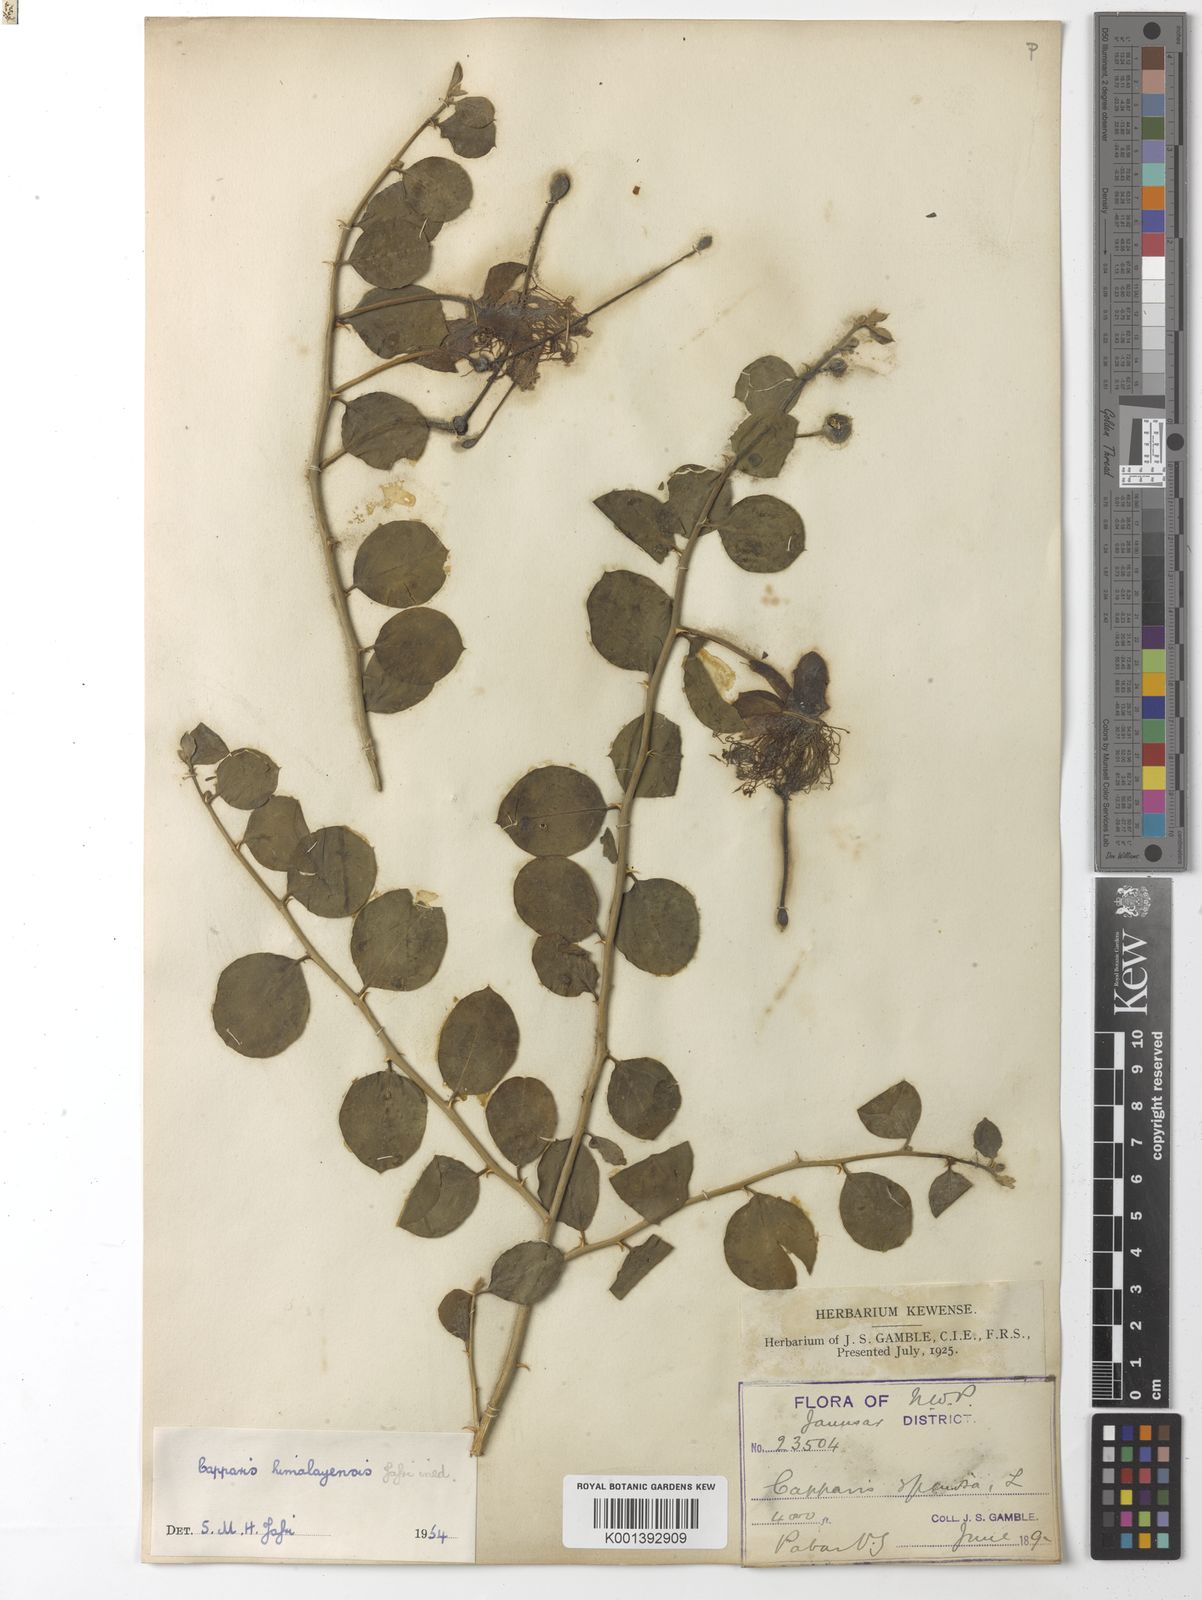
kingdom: Plantae
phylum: Tracheophyta
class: Magnoliopsida
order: Brassicales
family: Capparaceae
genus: Capparis
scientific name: Capparis spinosa
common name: Caper
